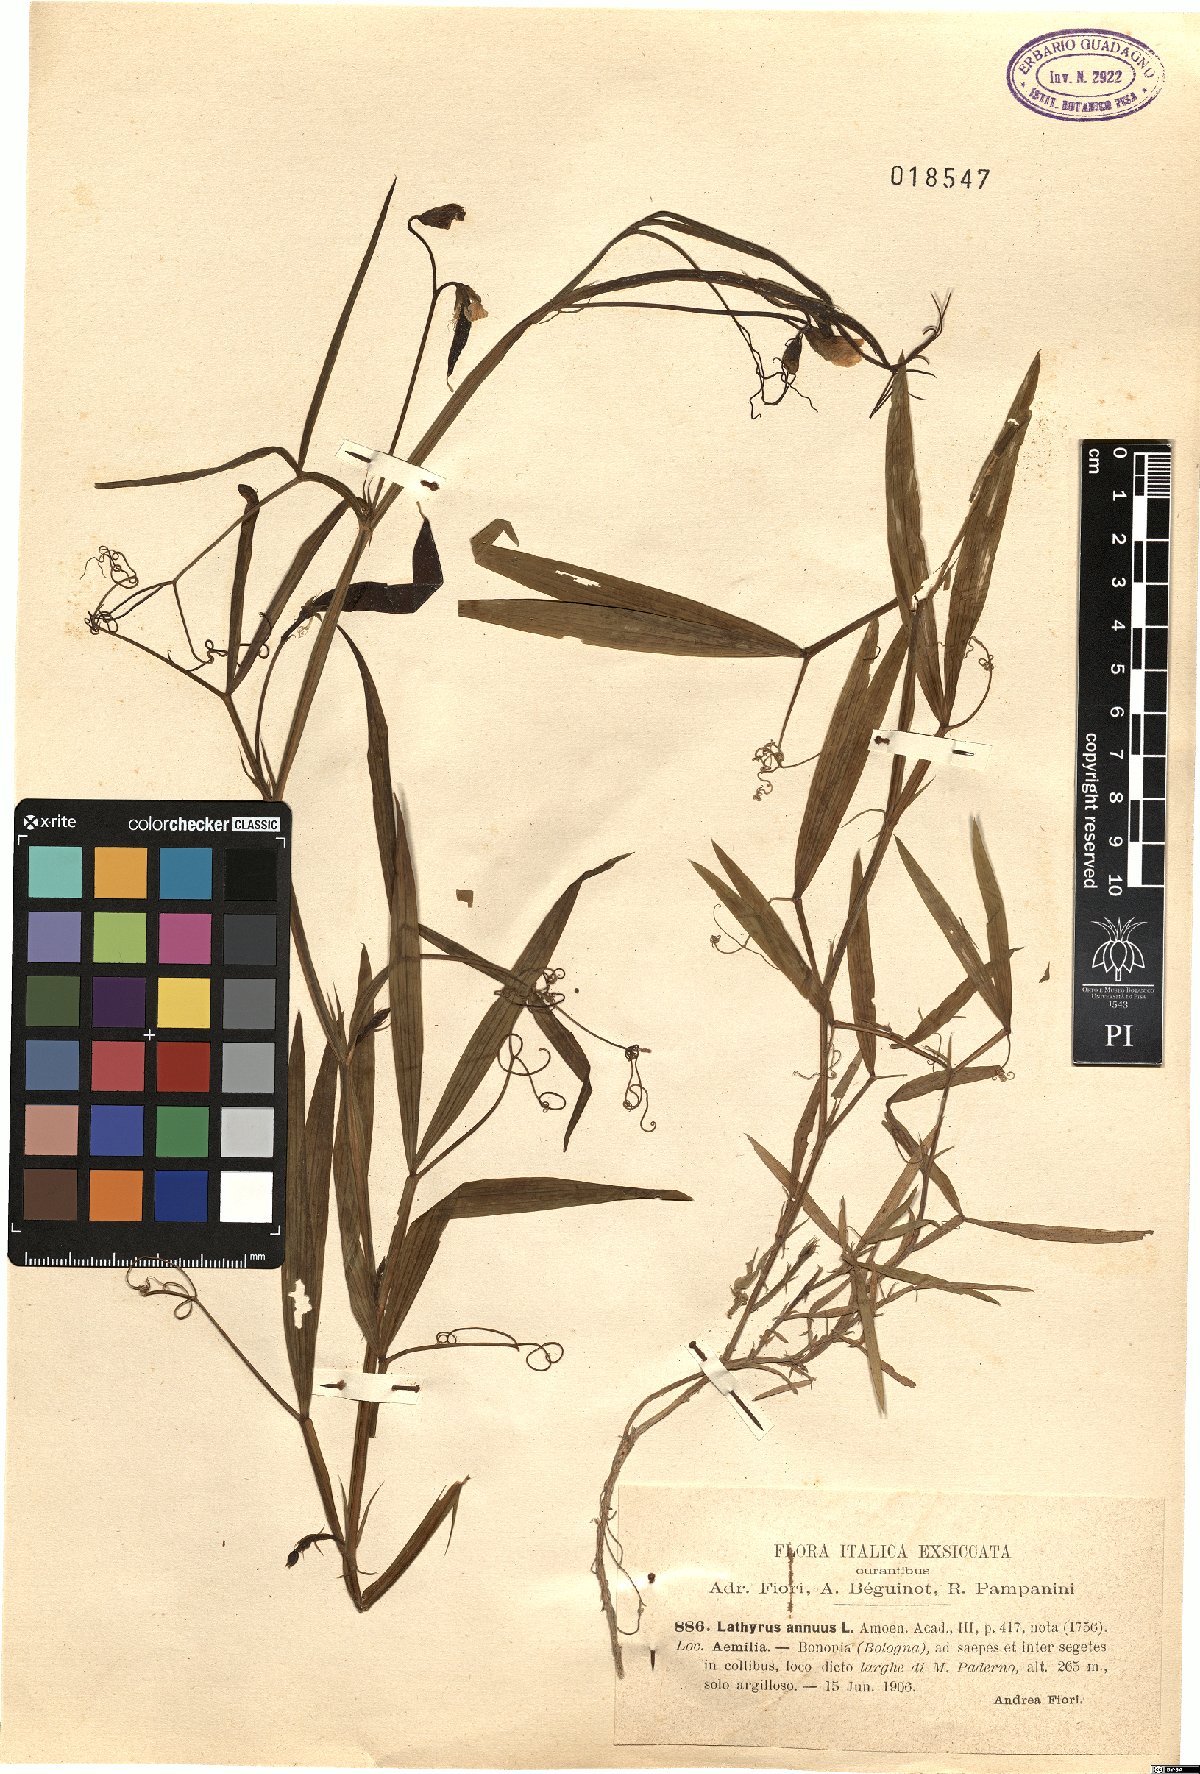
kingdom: Plantae
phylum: Tracheophyta
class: Magnoliopsida
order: Fabales
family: Fabaceae
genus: Lathyrus
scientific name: Lathyrus annuus
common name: Fodder pea
